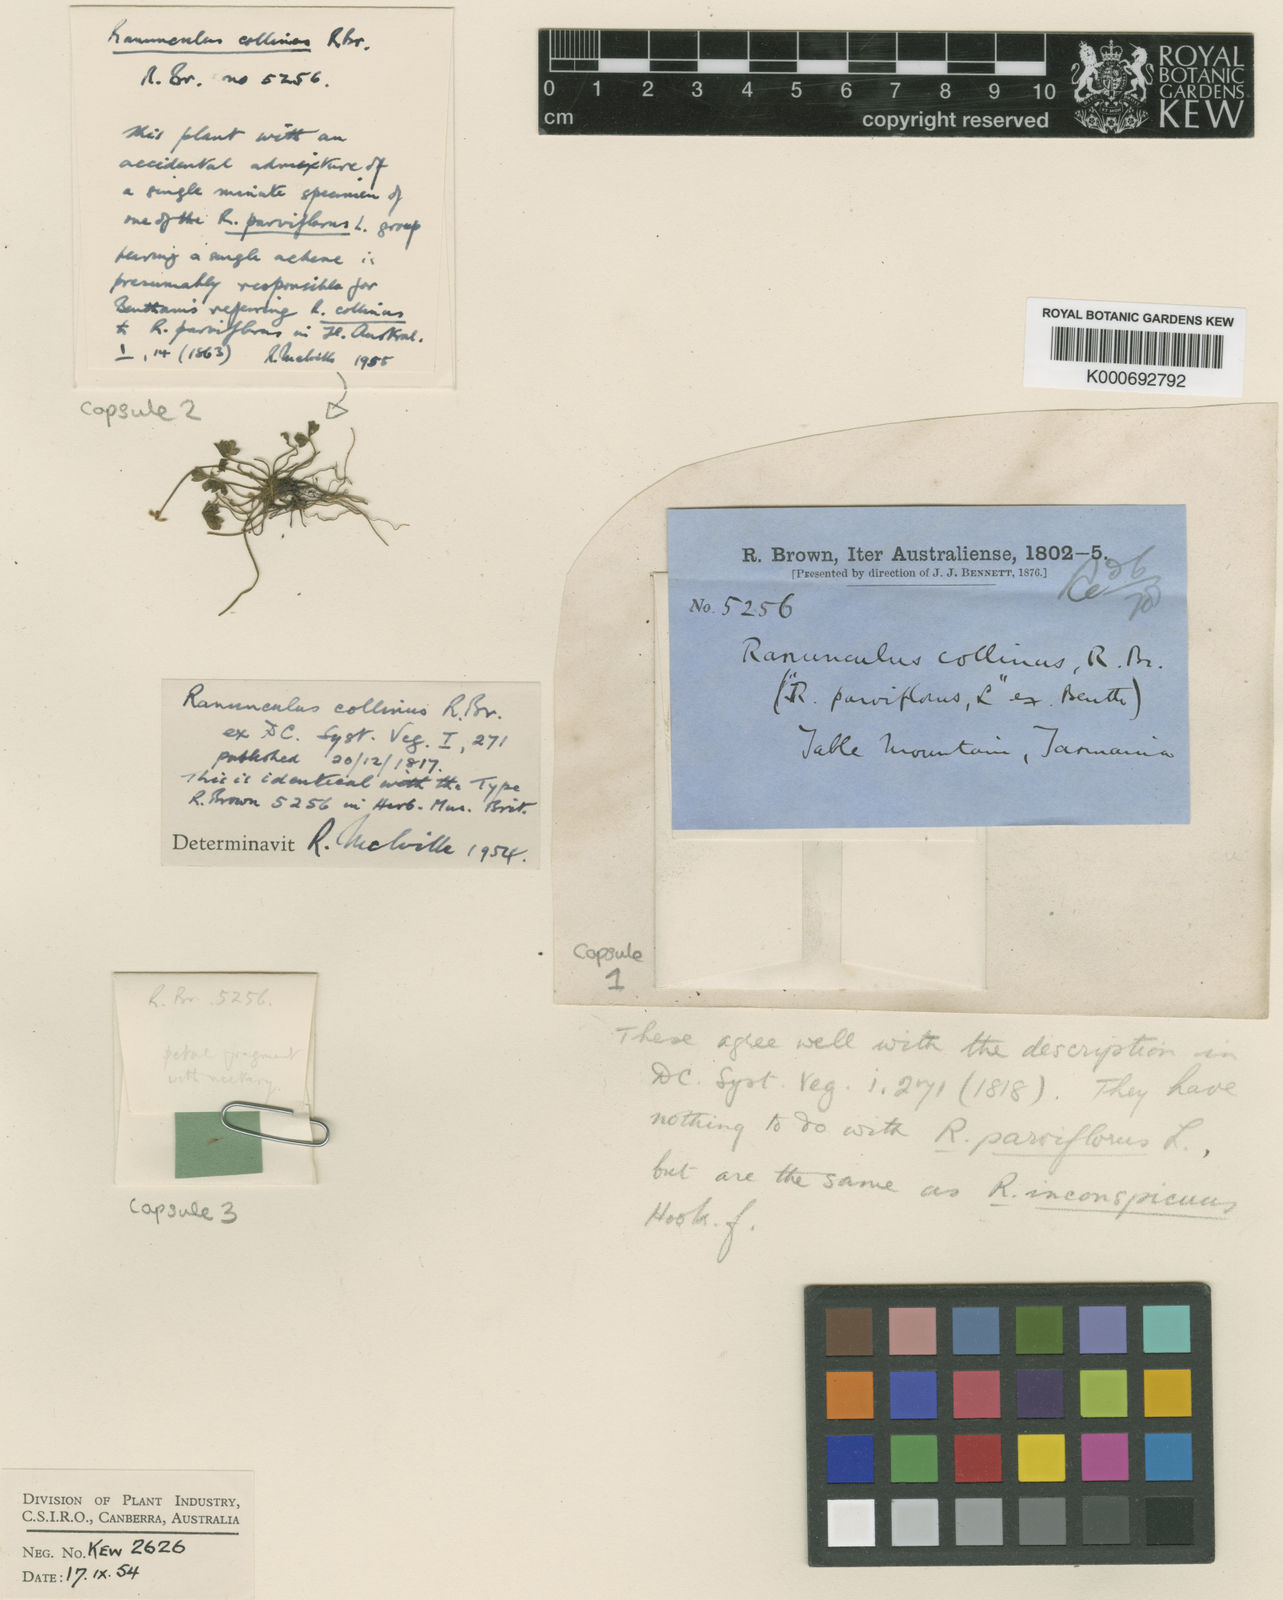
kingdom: Plantae
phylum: Tracheophyta
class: Magnoliopsida
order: Ranunculales
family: Ranunculaceae
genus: Ranunculus
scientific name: Ranunculus collinus
